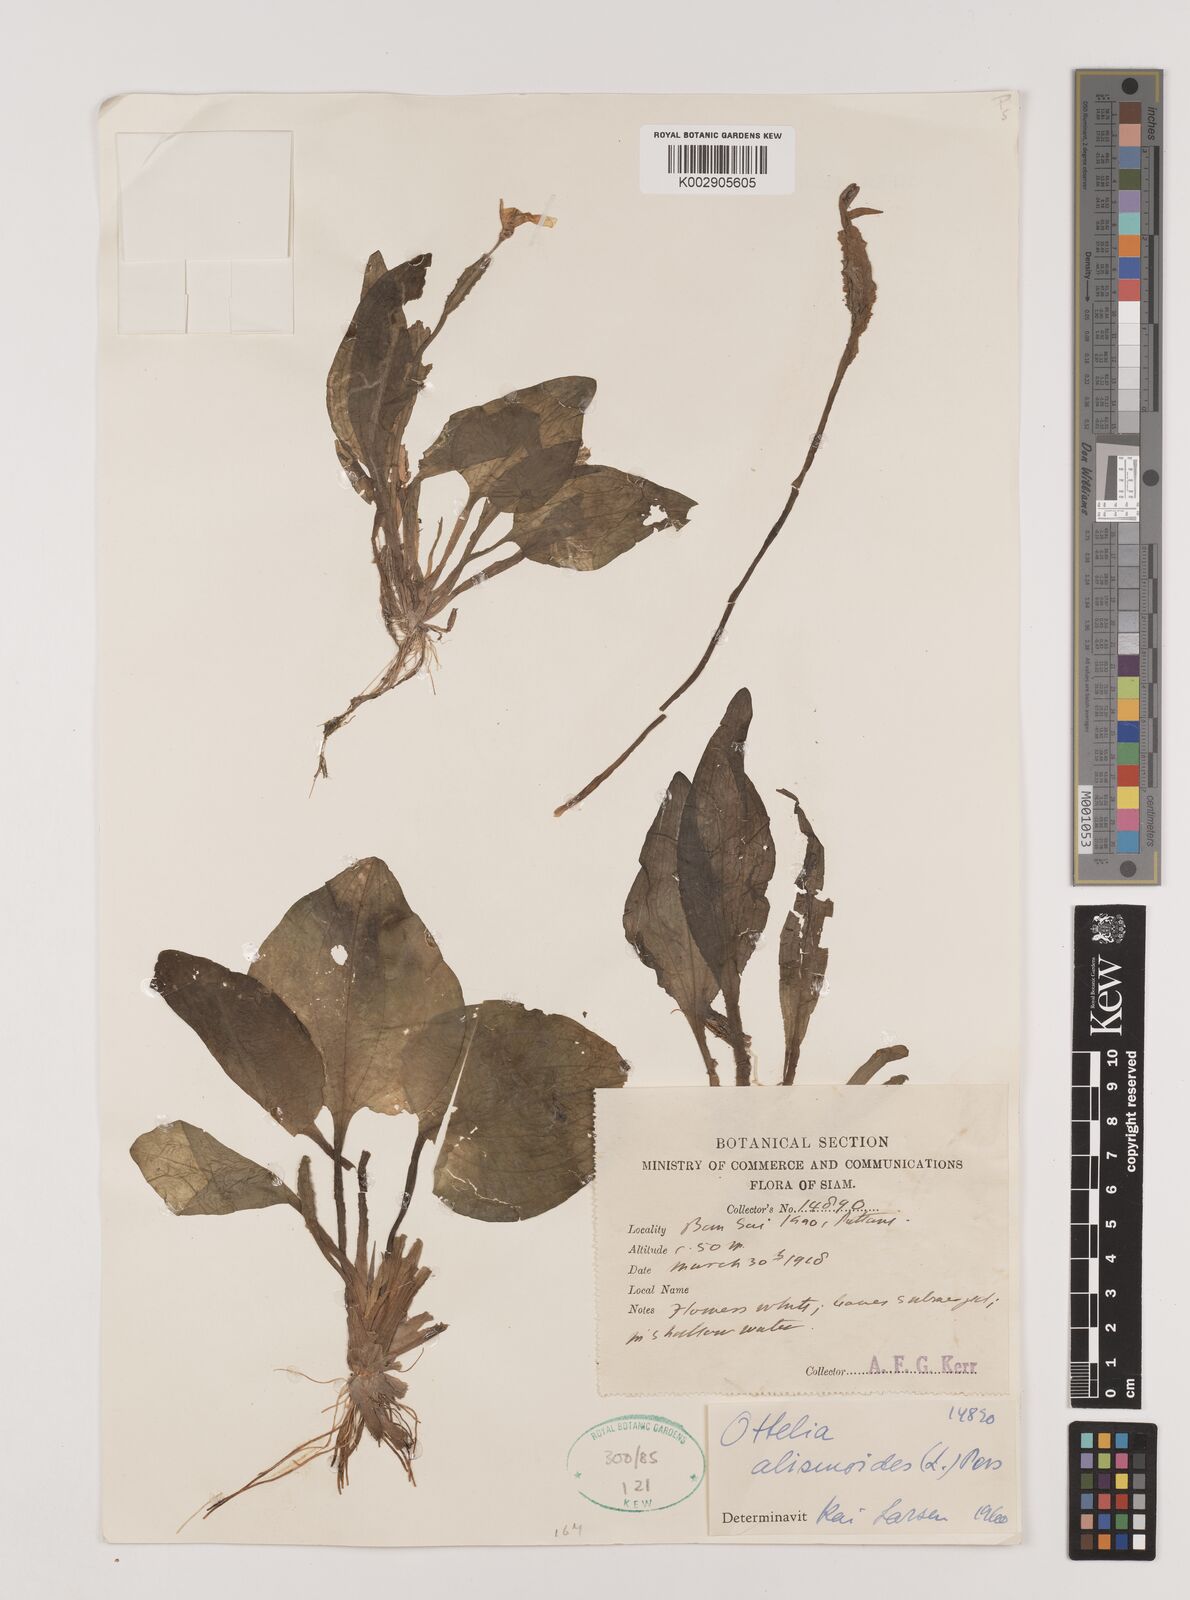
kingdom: Plantae
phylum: Tracheophyta
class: Liliopsida
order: Alismatales
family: Hydrocharitaceae
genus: Ottelia
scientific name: Ottelia alismoides
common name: Duck-lettuce
